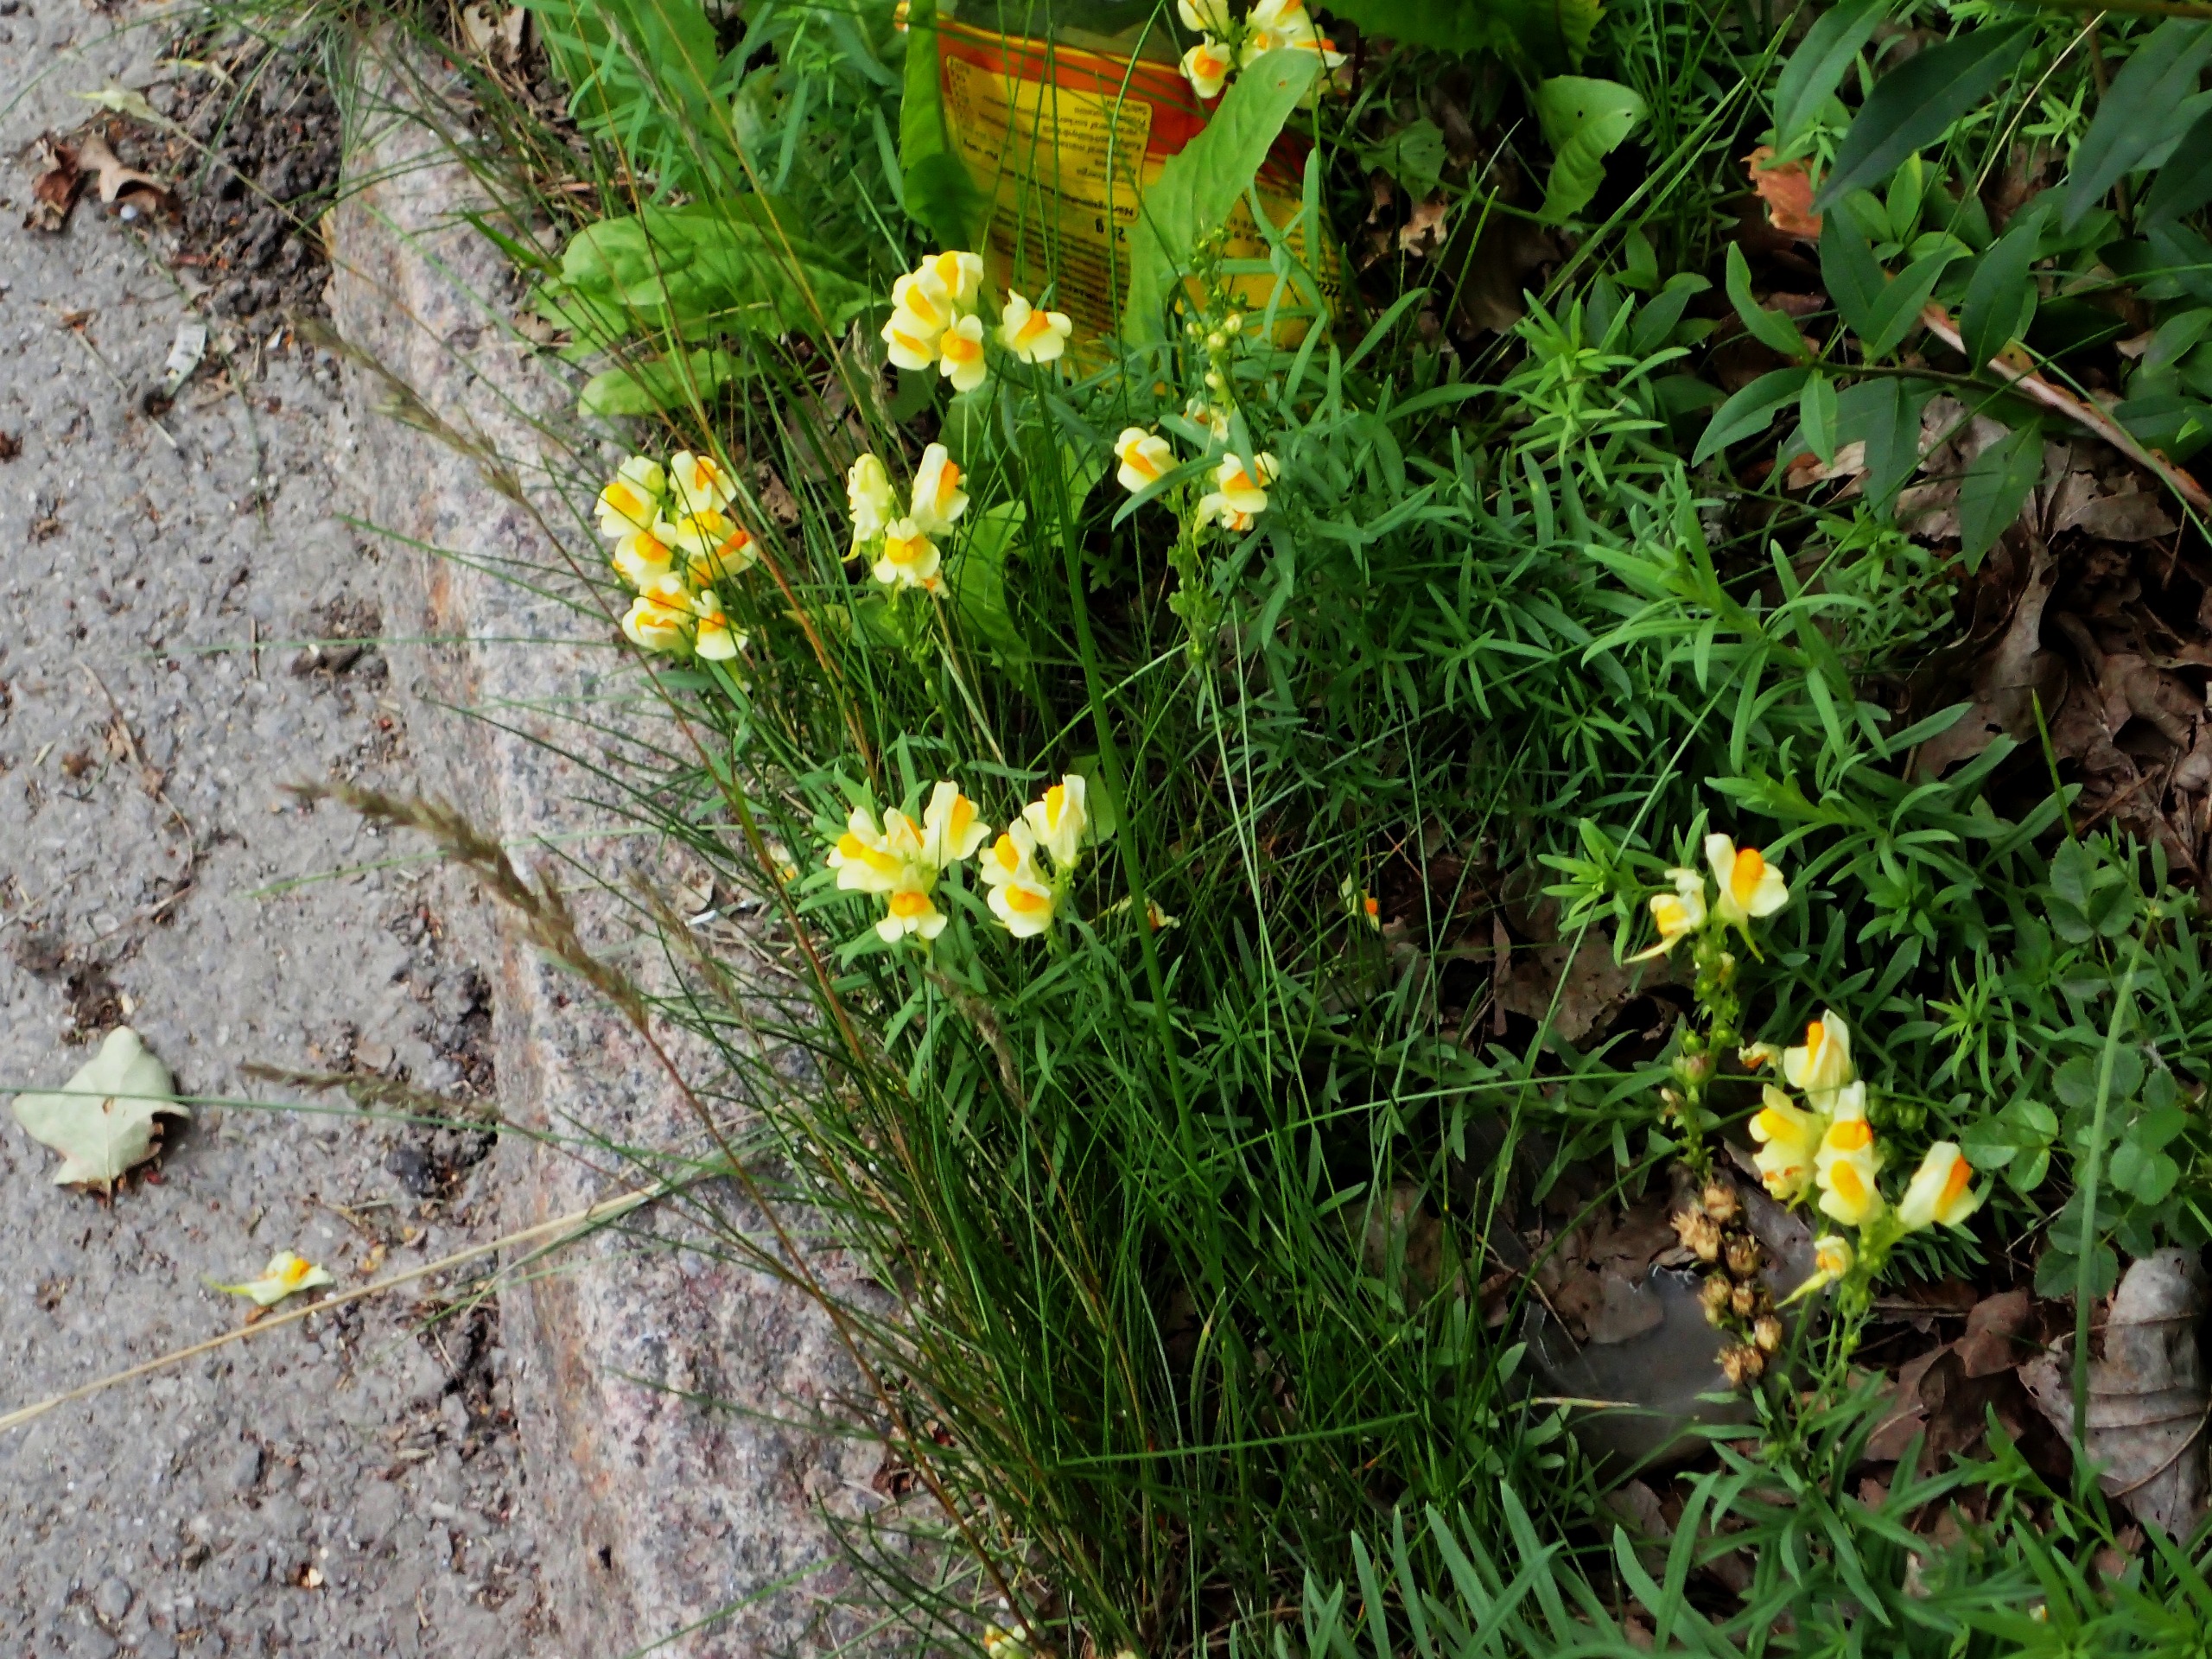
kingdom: Plantae
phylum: Tracheophyta
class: Magnoliopsida
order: Lamiales
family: Plantaginaceae
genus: Linaria
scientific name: Linaria vulgaris
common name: Almindelig torskemund
